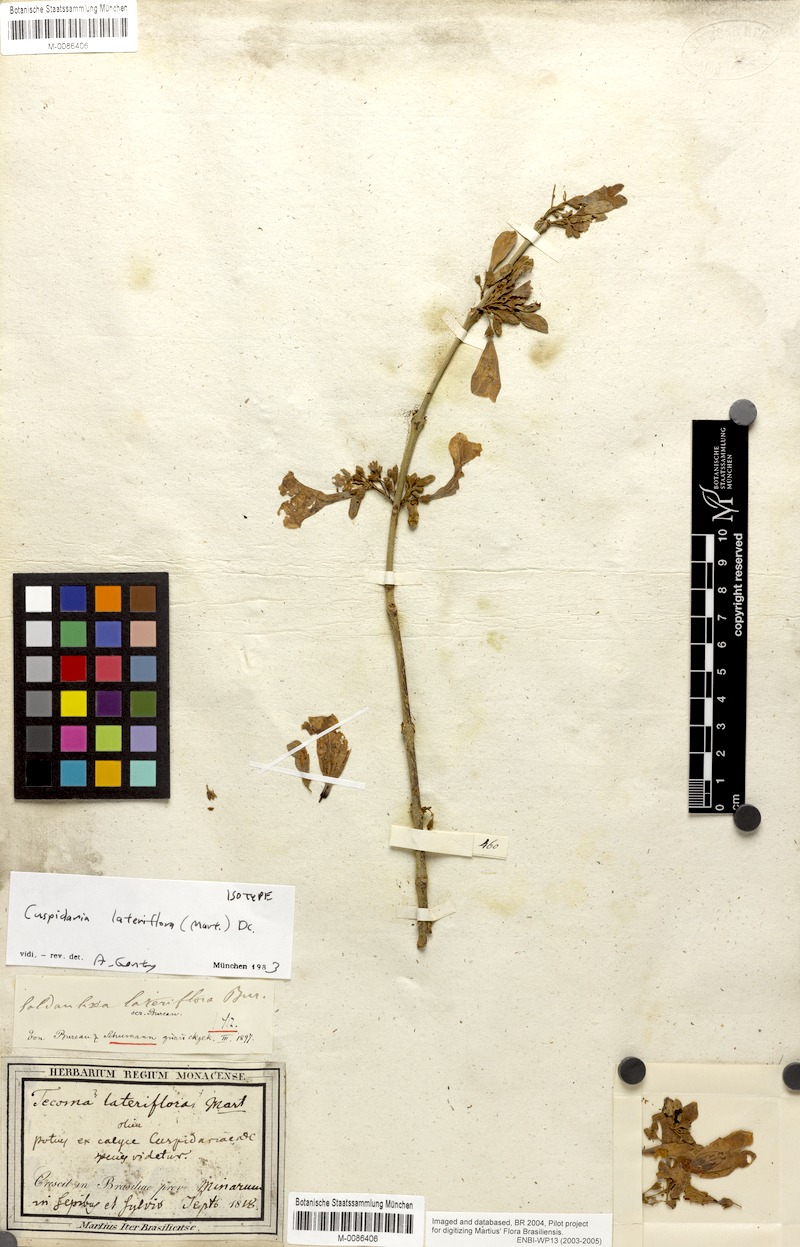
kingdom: Plantae
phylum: Tracheophyta
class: Magnoliopsida
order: Lamiales
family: Bignoniaceae
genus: Cuspidaria
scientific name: Cuspidaria lateriflora
